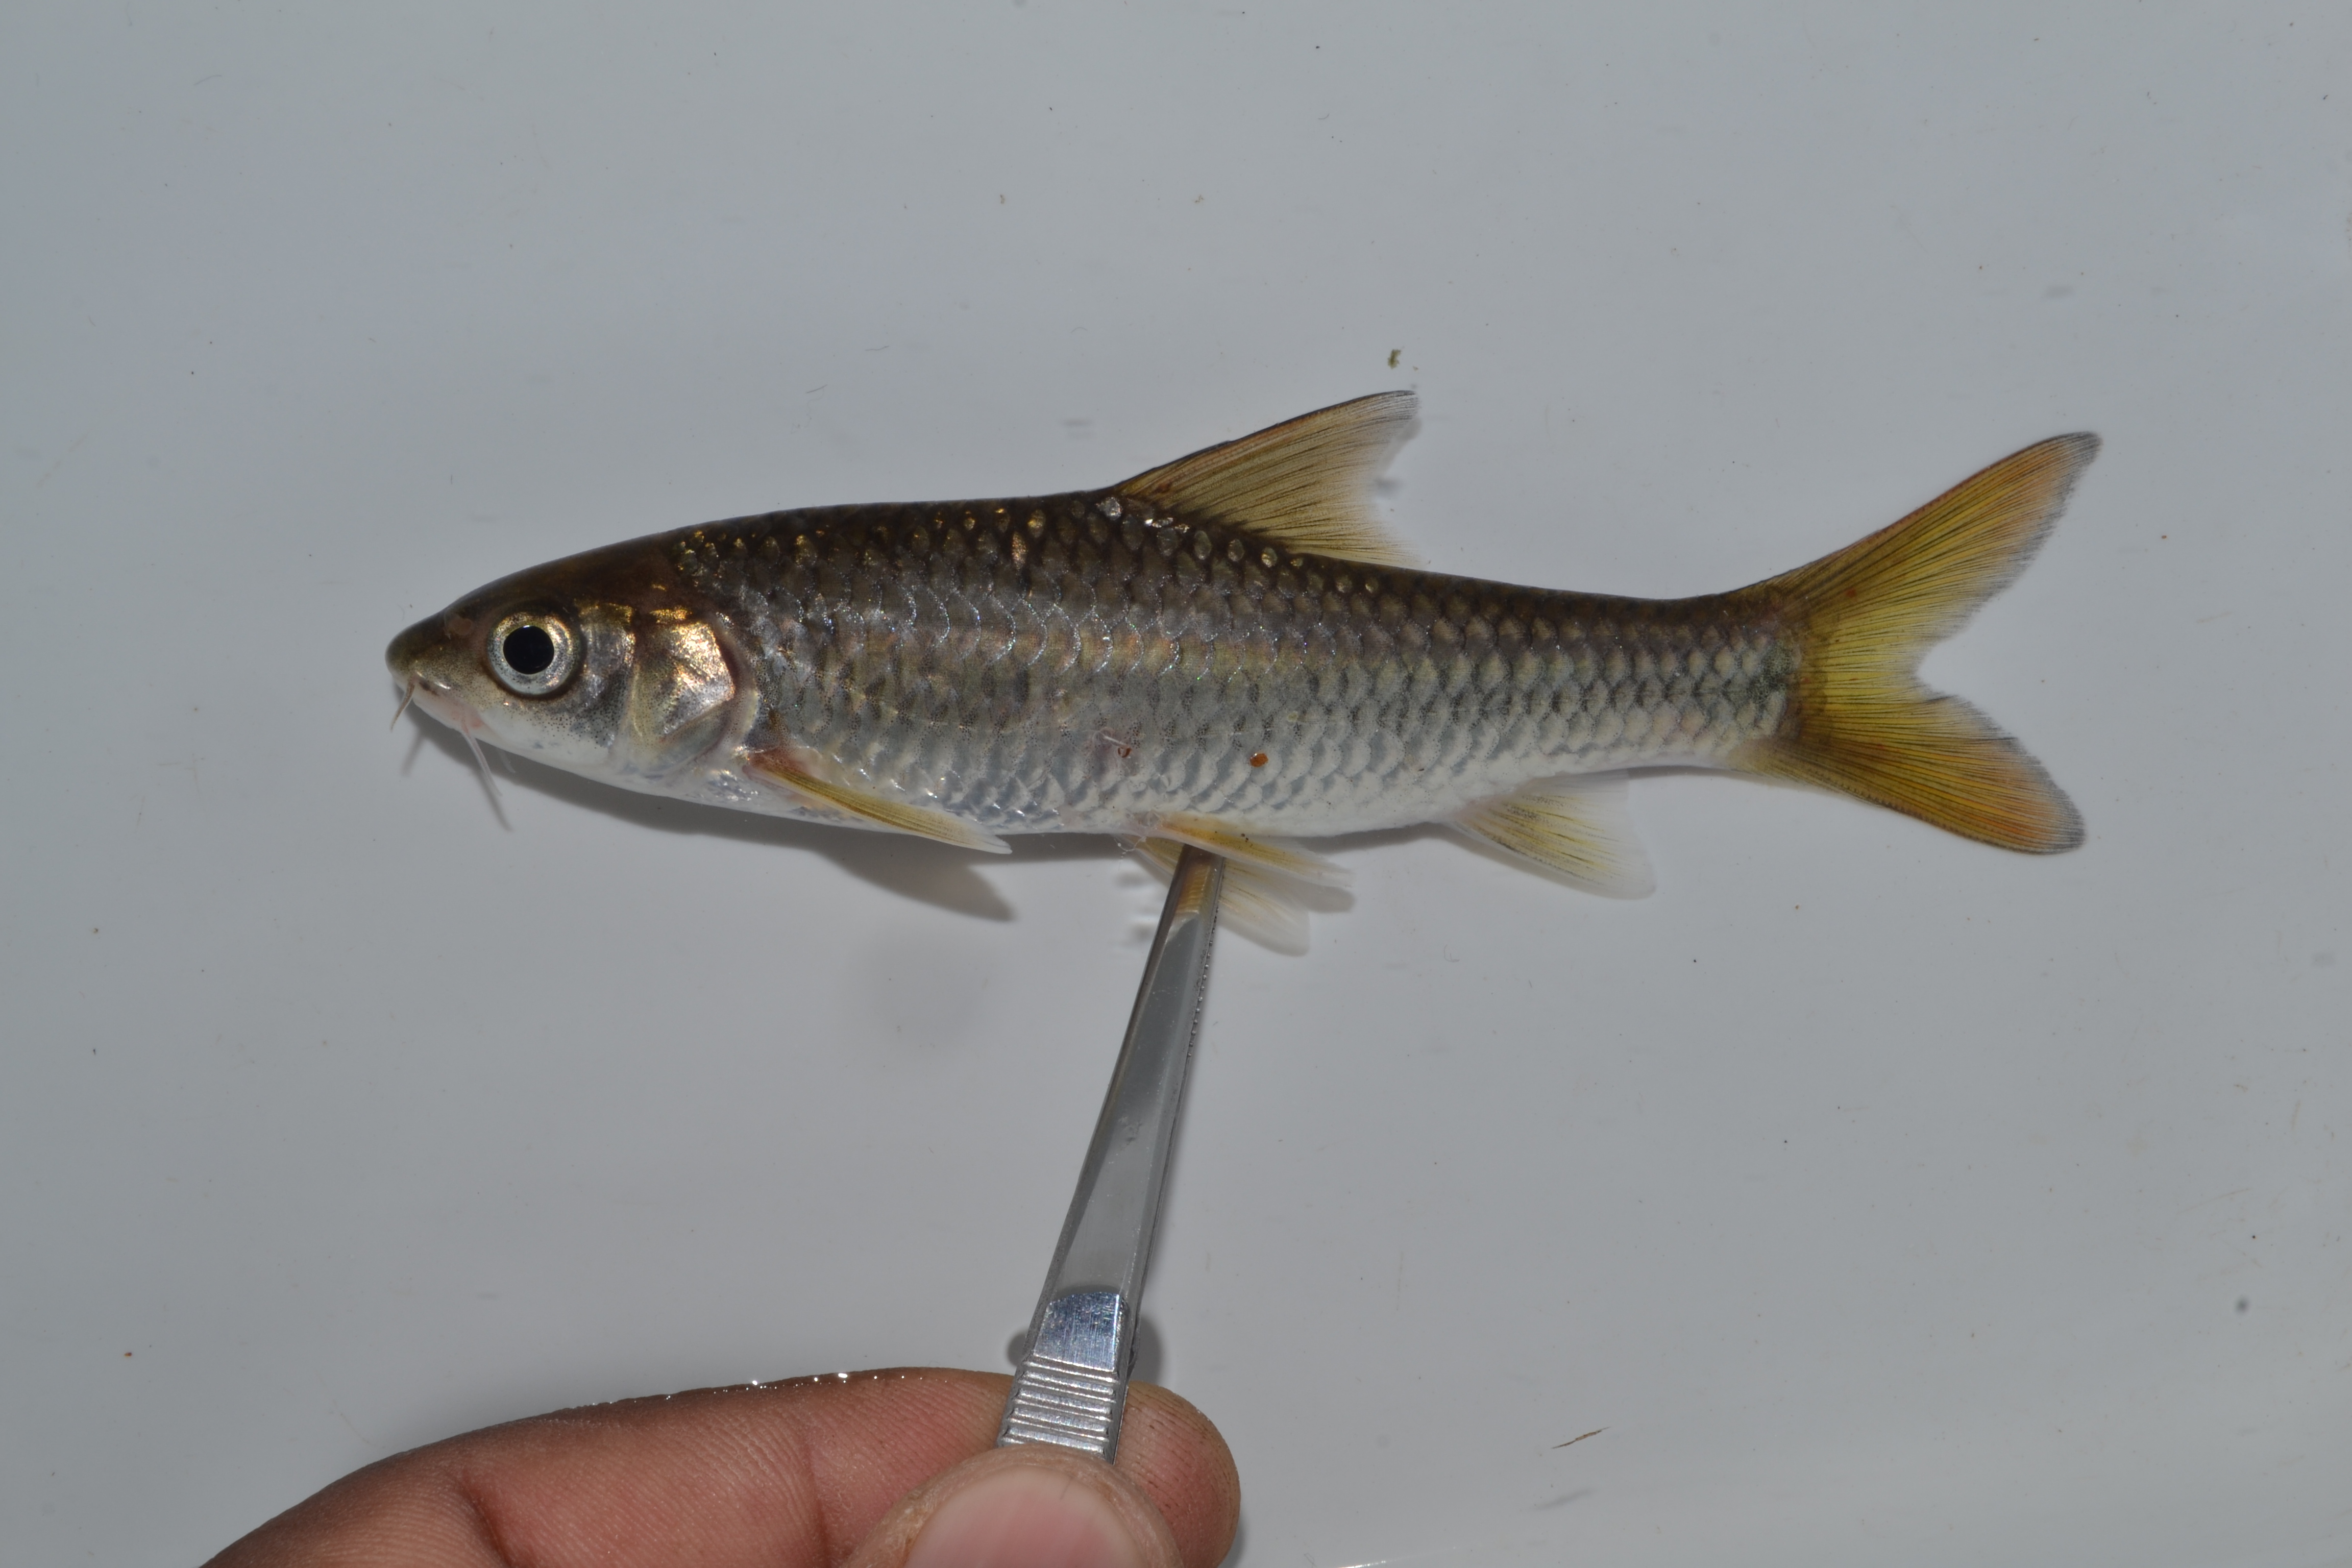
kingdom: Animalia
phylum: Chordata
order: Cypriniformes
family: Cyprinidae
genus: Labeobarbus
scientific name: Labeobarbus natalensis
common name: Scaly
